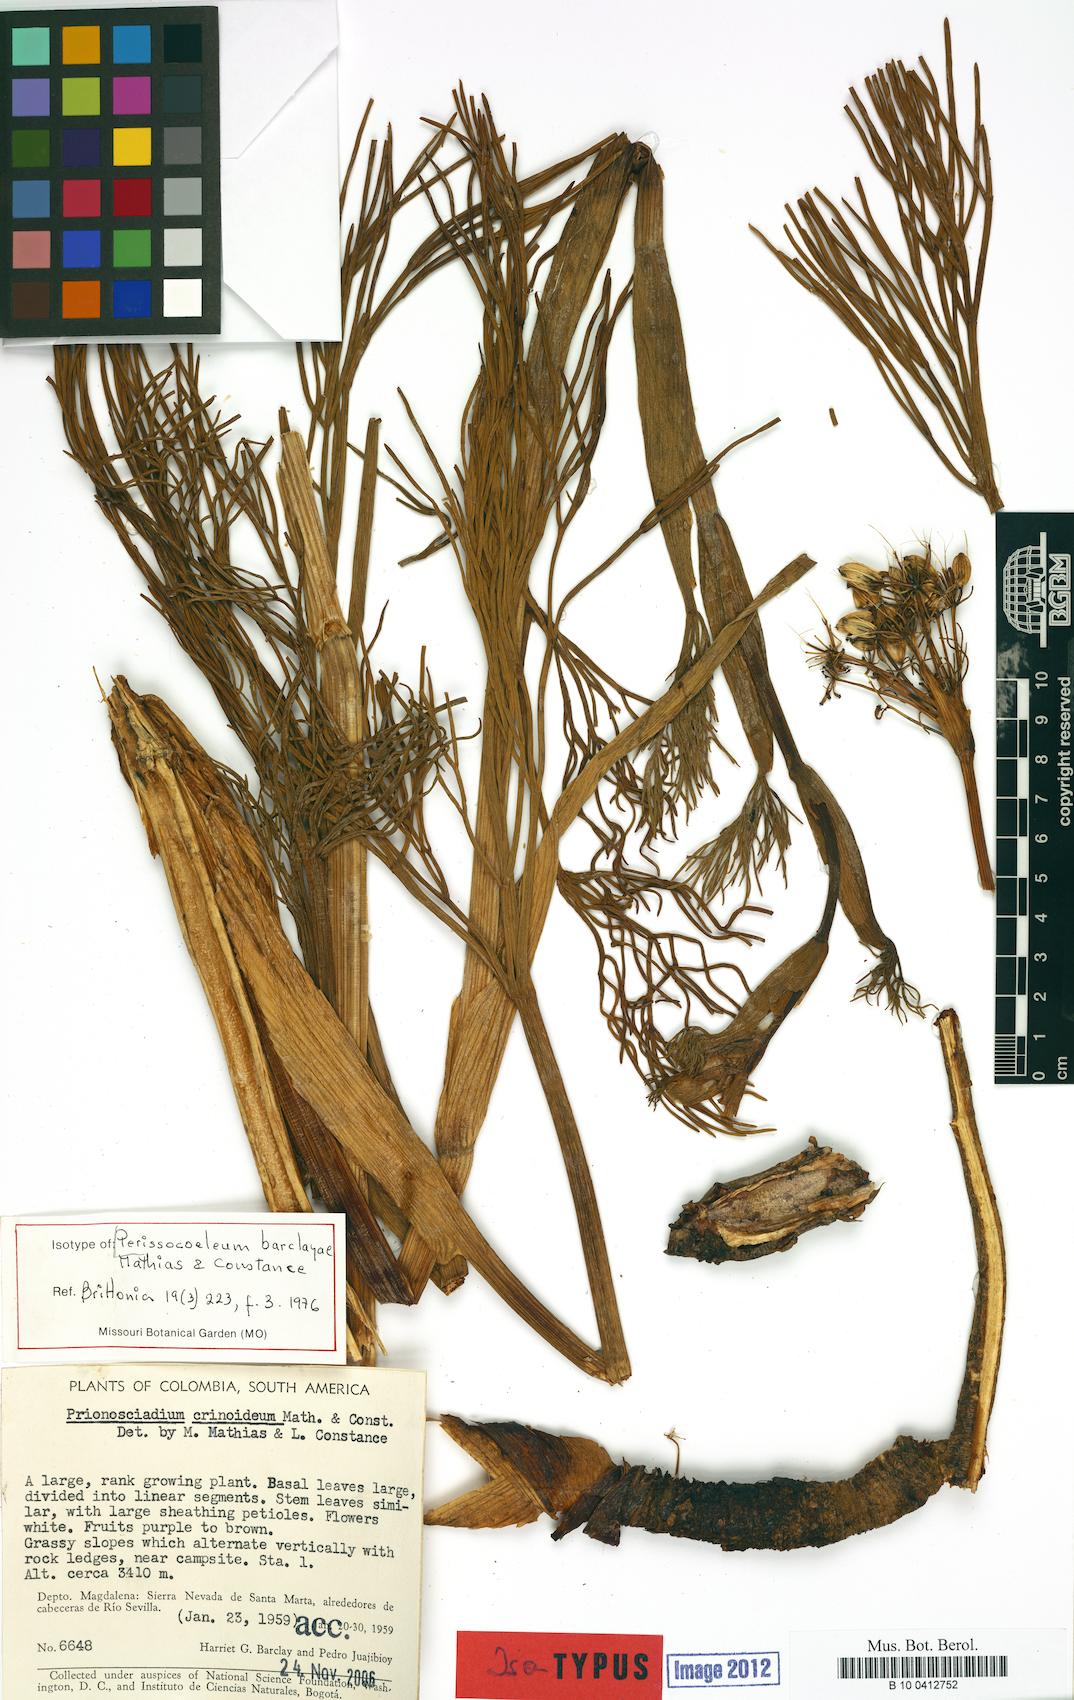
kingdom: Plantae
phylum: Tracheophyta
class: Magnoliopsida
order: Apiales
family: Apiaceae
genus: Perissocoeleum
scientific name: Perissocoeleum barclayae
